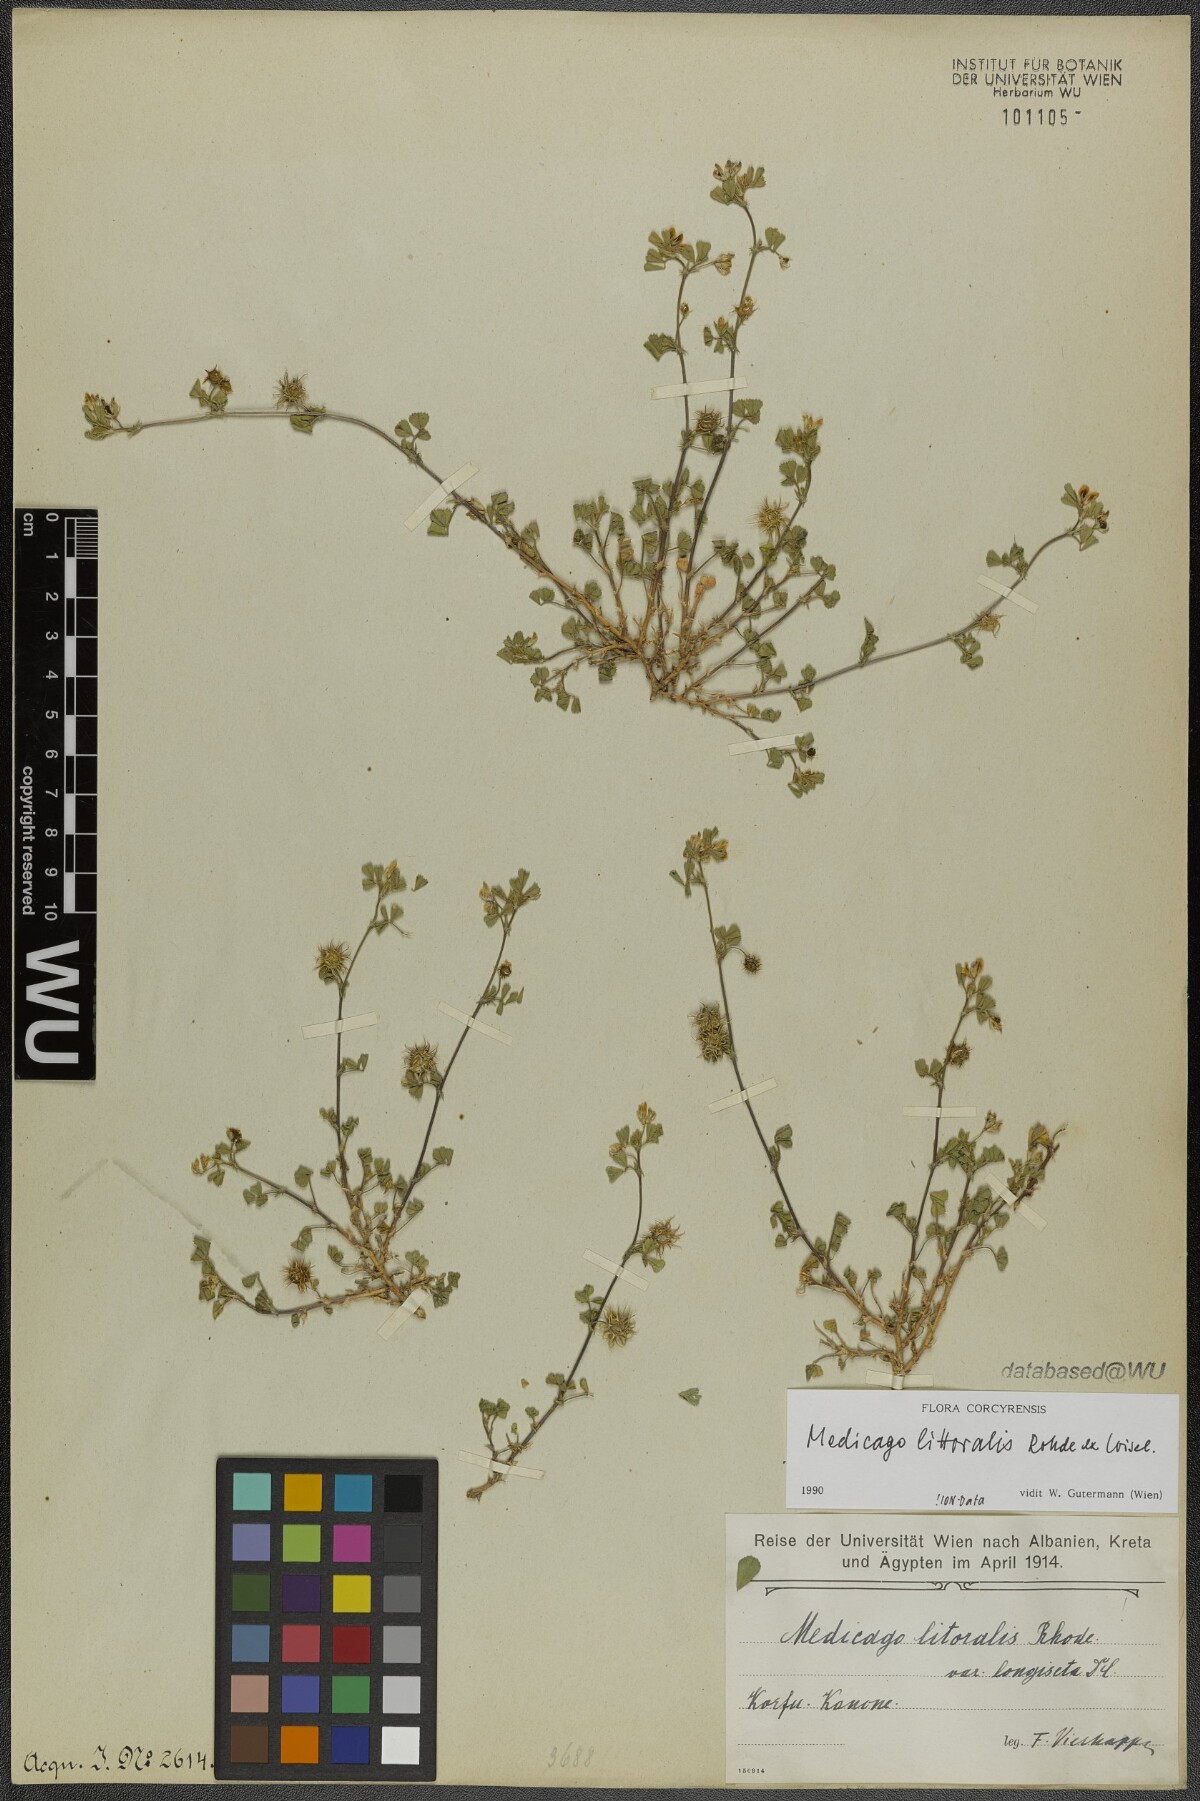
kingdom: Plantae
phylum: Tracheophyta
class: Magnoliopsida
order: Fabales
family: Fabaceae
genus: Medicago
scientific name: Medicago littoralis
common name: Shore medick
